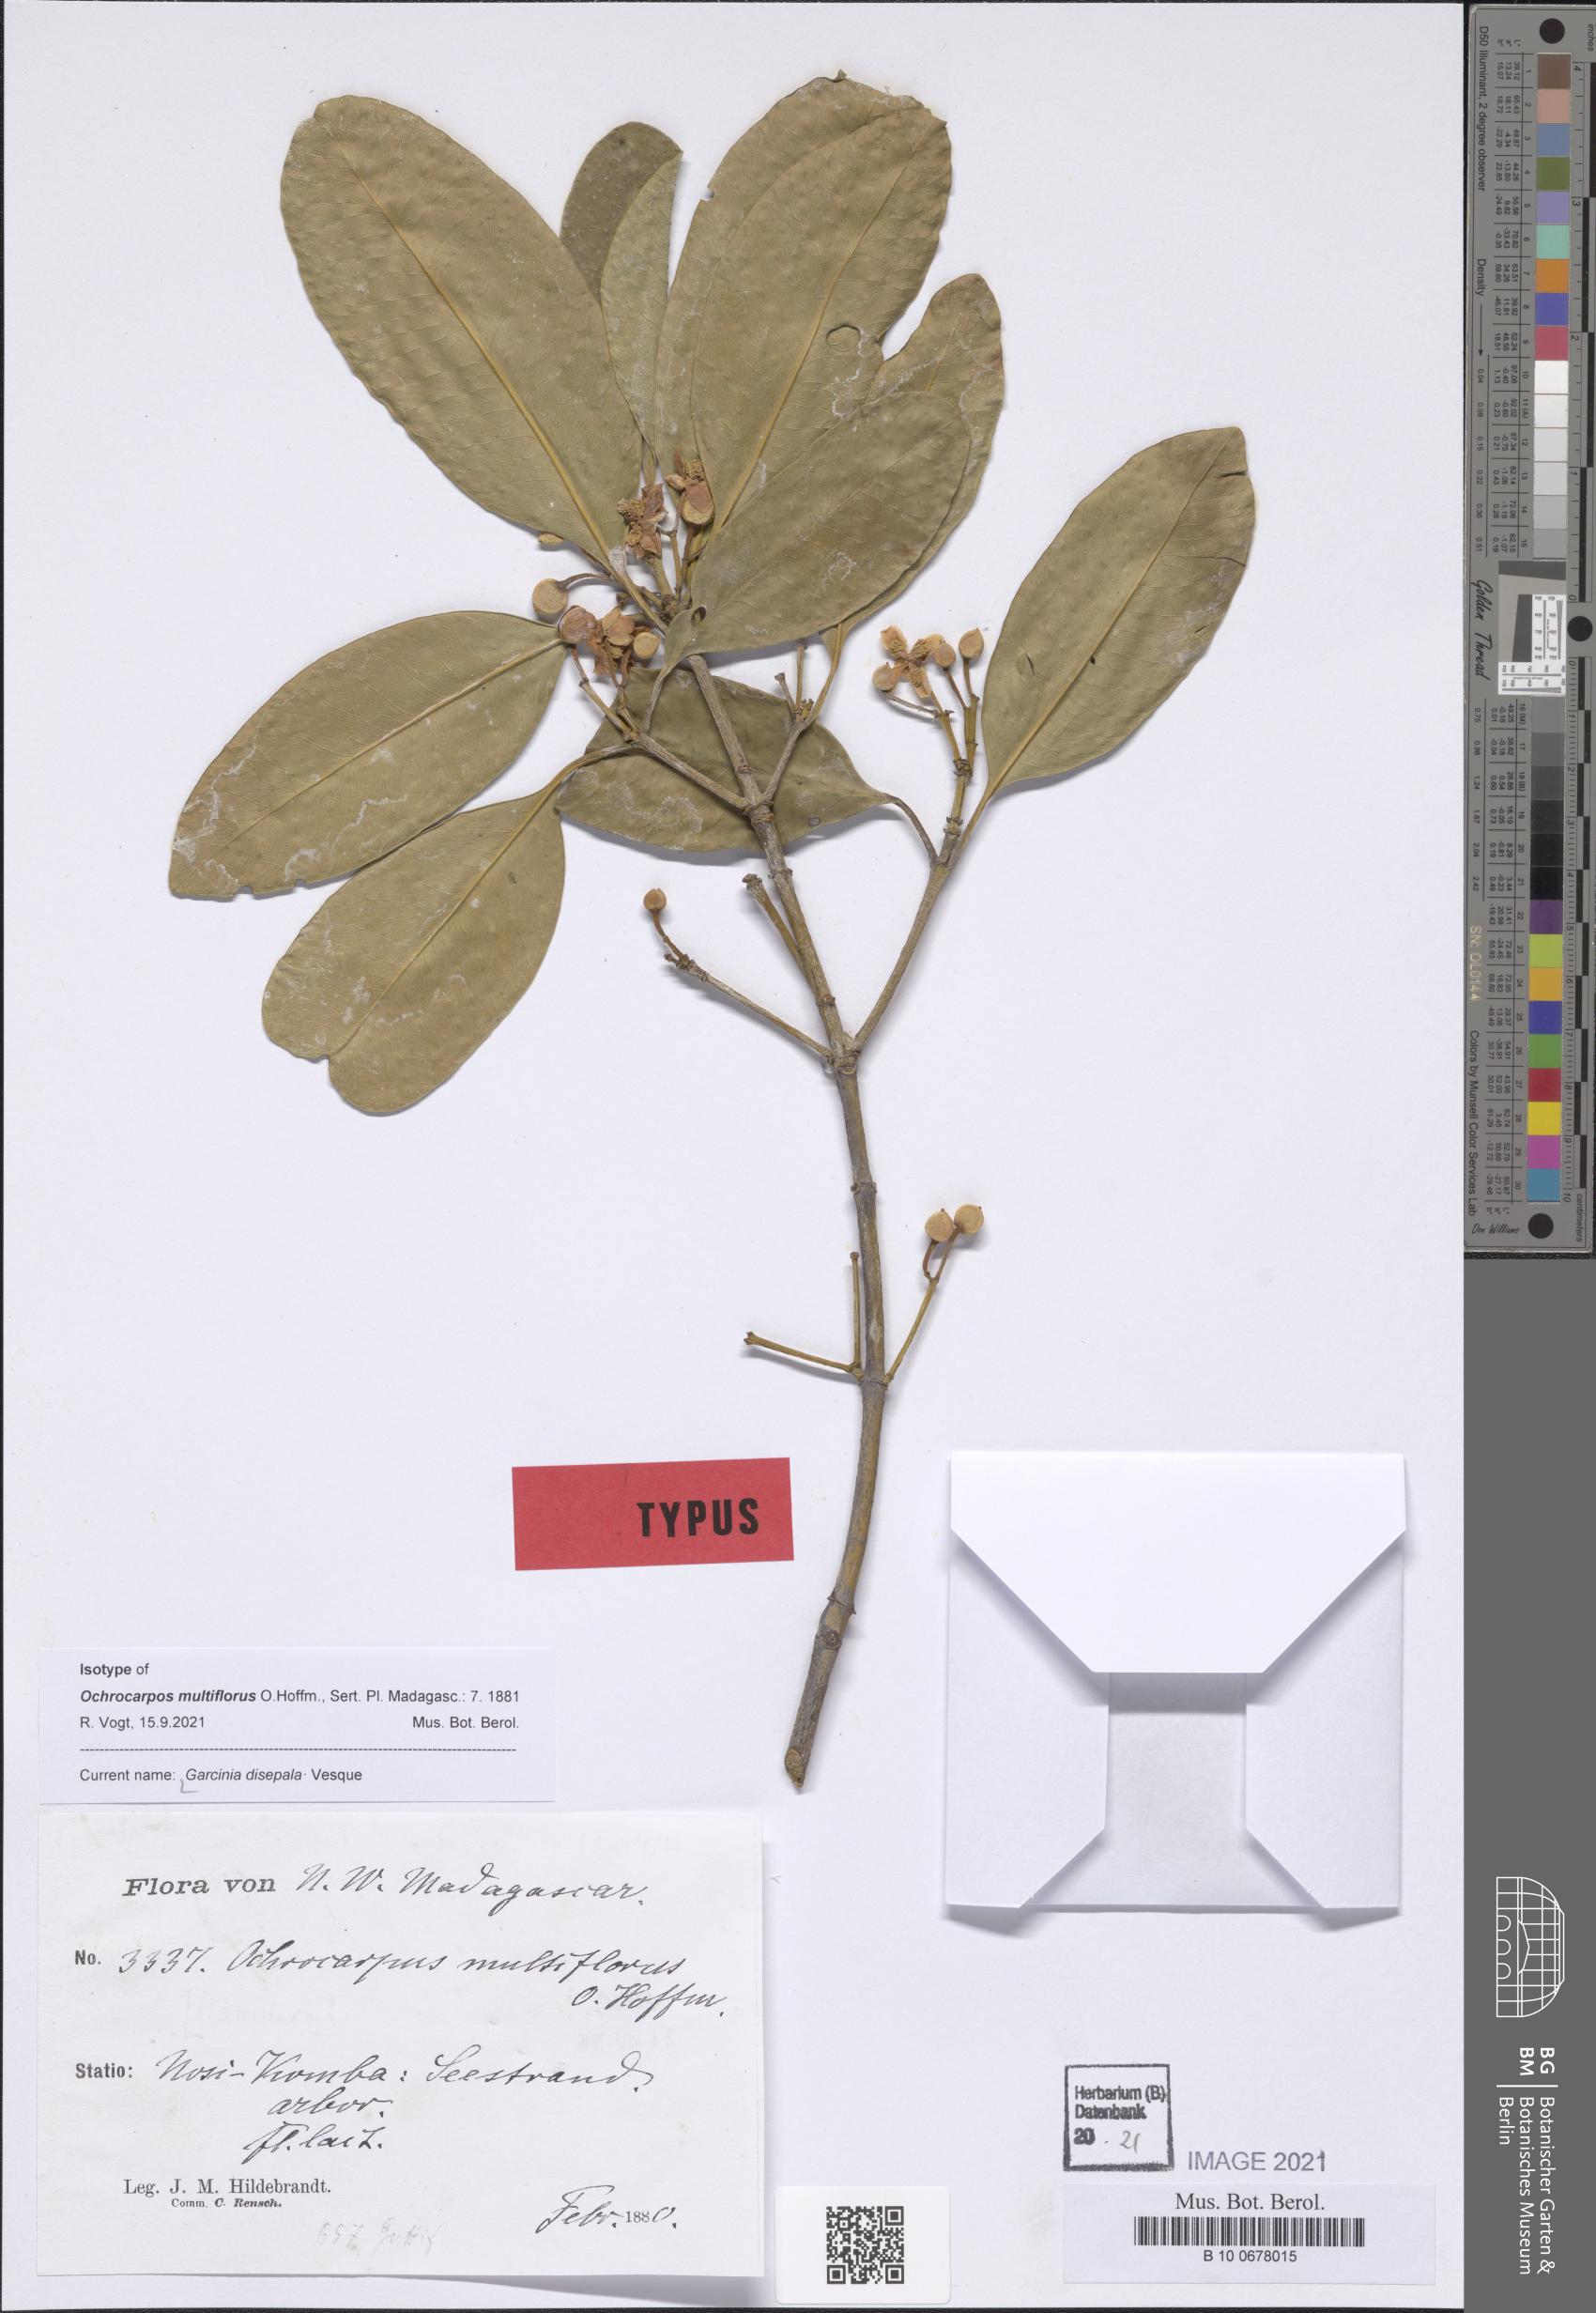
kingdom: Plantae
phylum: Tracheophyta
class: Magnoliopsida
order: Malpighiales
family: Clusiaceae
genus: Garcinia
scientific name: Garcinia evonymoides
